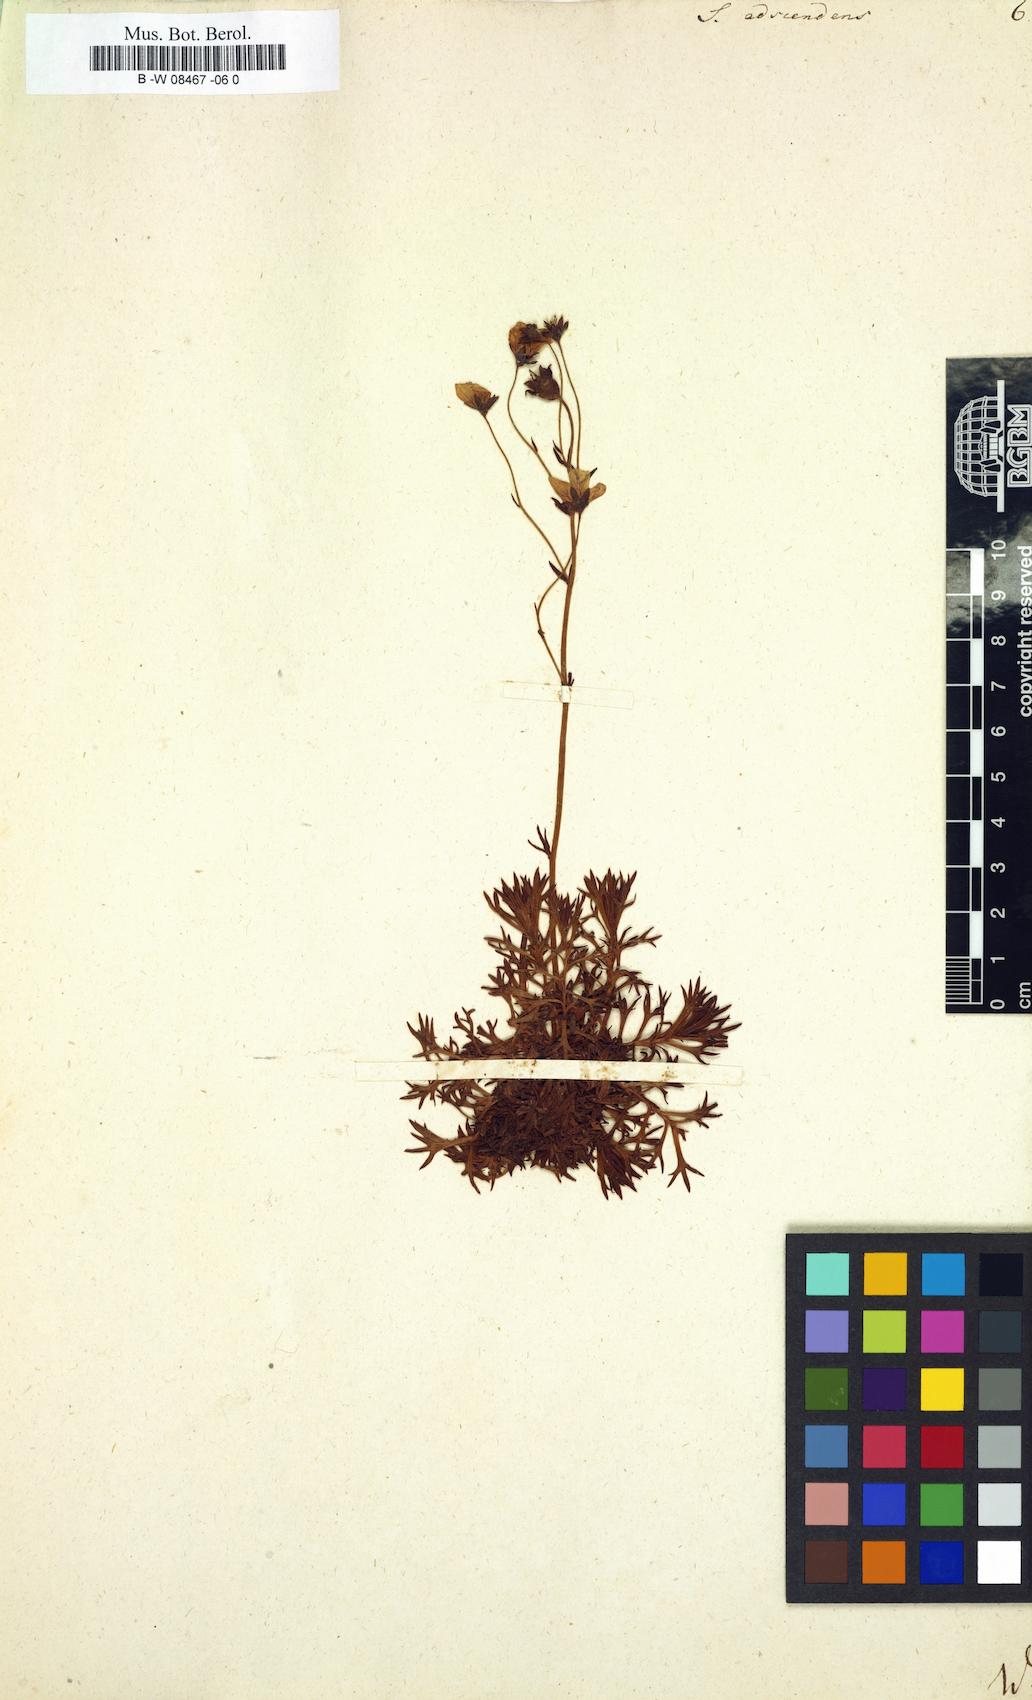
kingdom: Plantae
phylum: Tracheophyta
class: Magnoliopsida
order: Saxifragales
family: Saxifragaceae
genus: Saxifraga
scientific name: Saxifraga adscendens
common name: Ascending saxifrage
